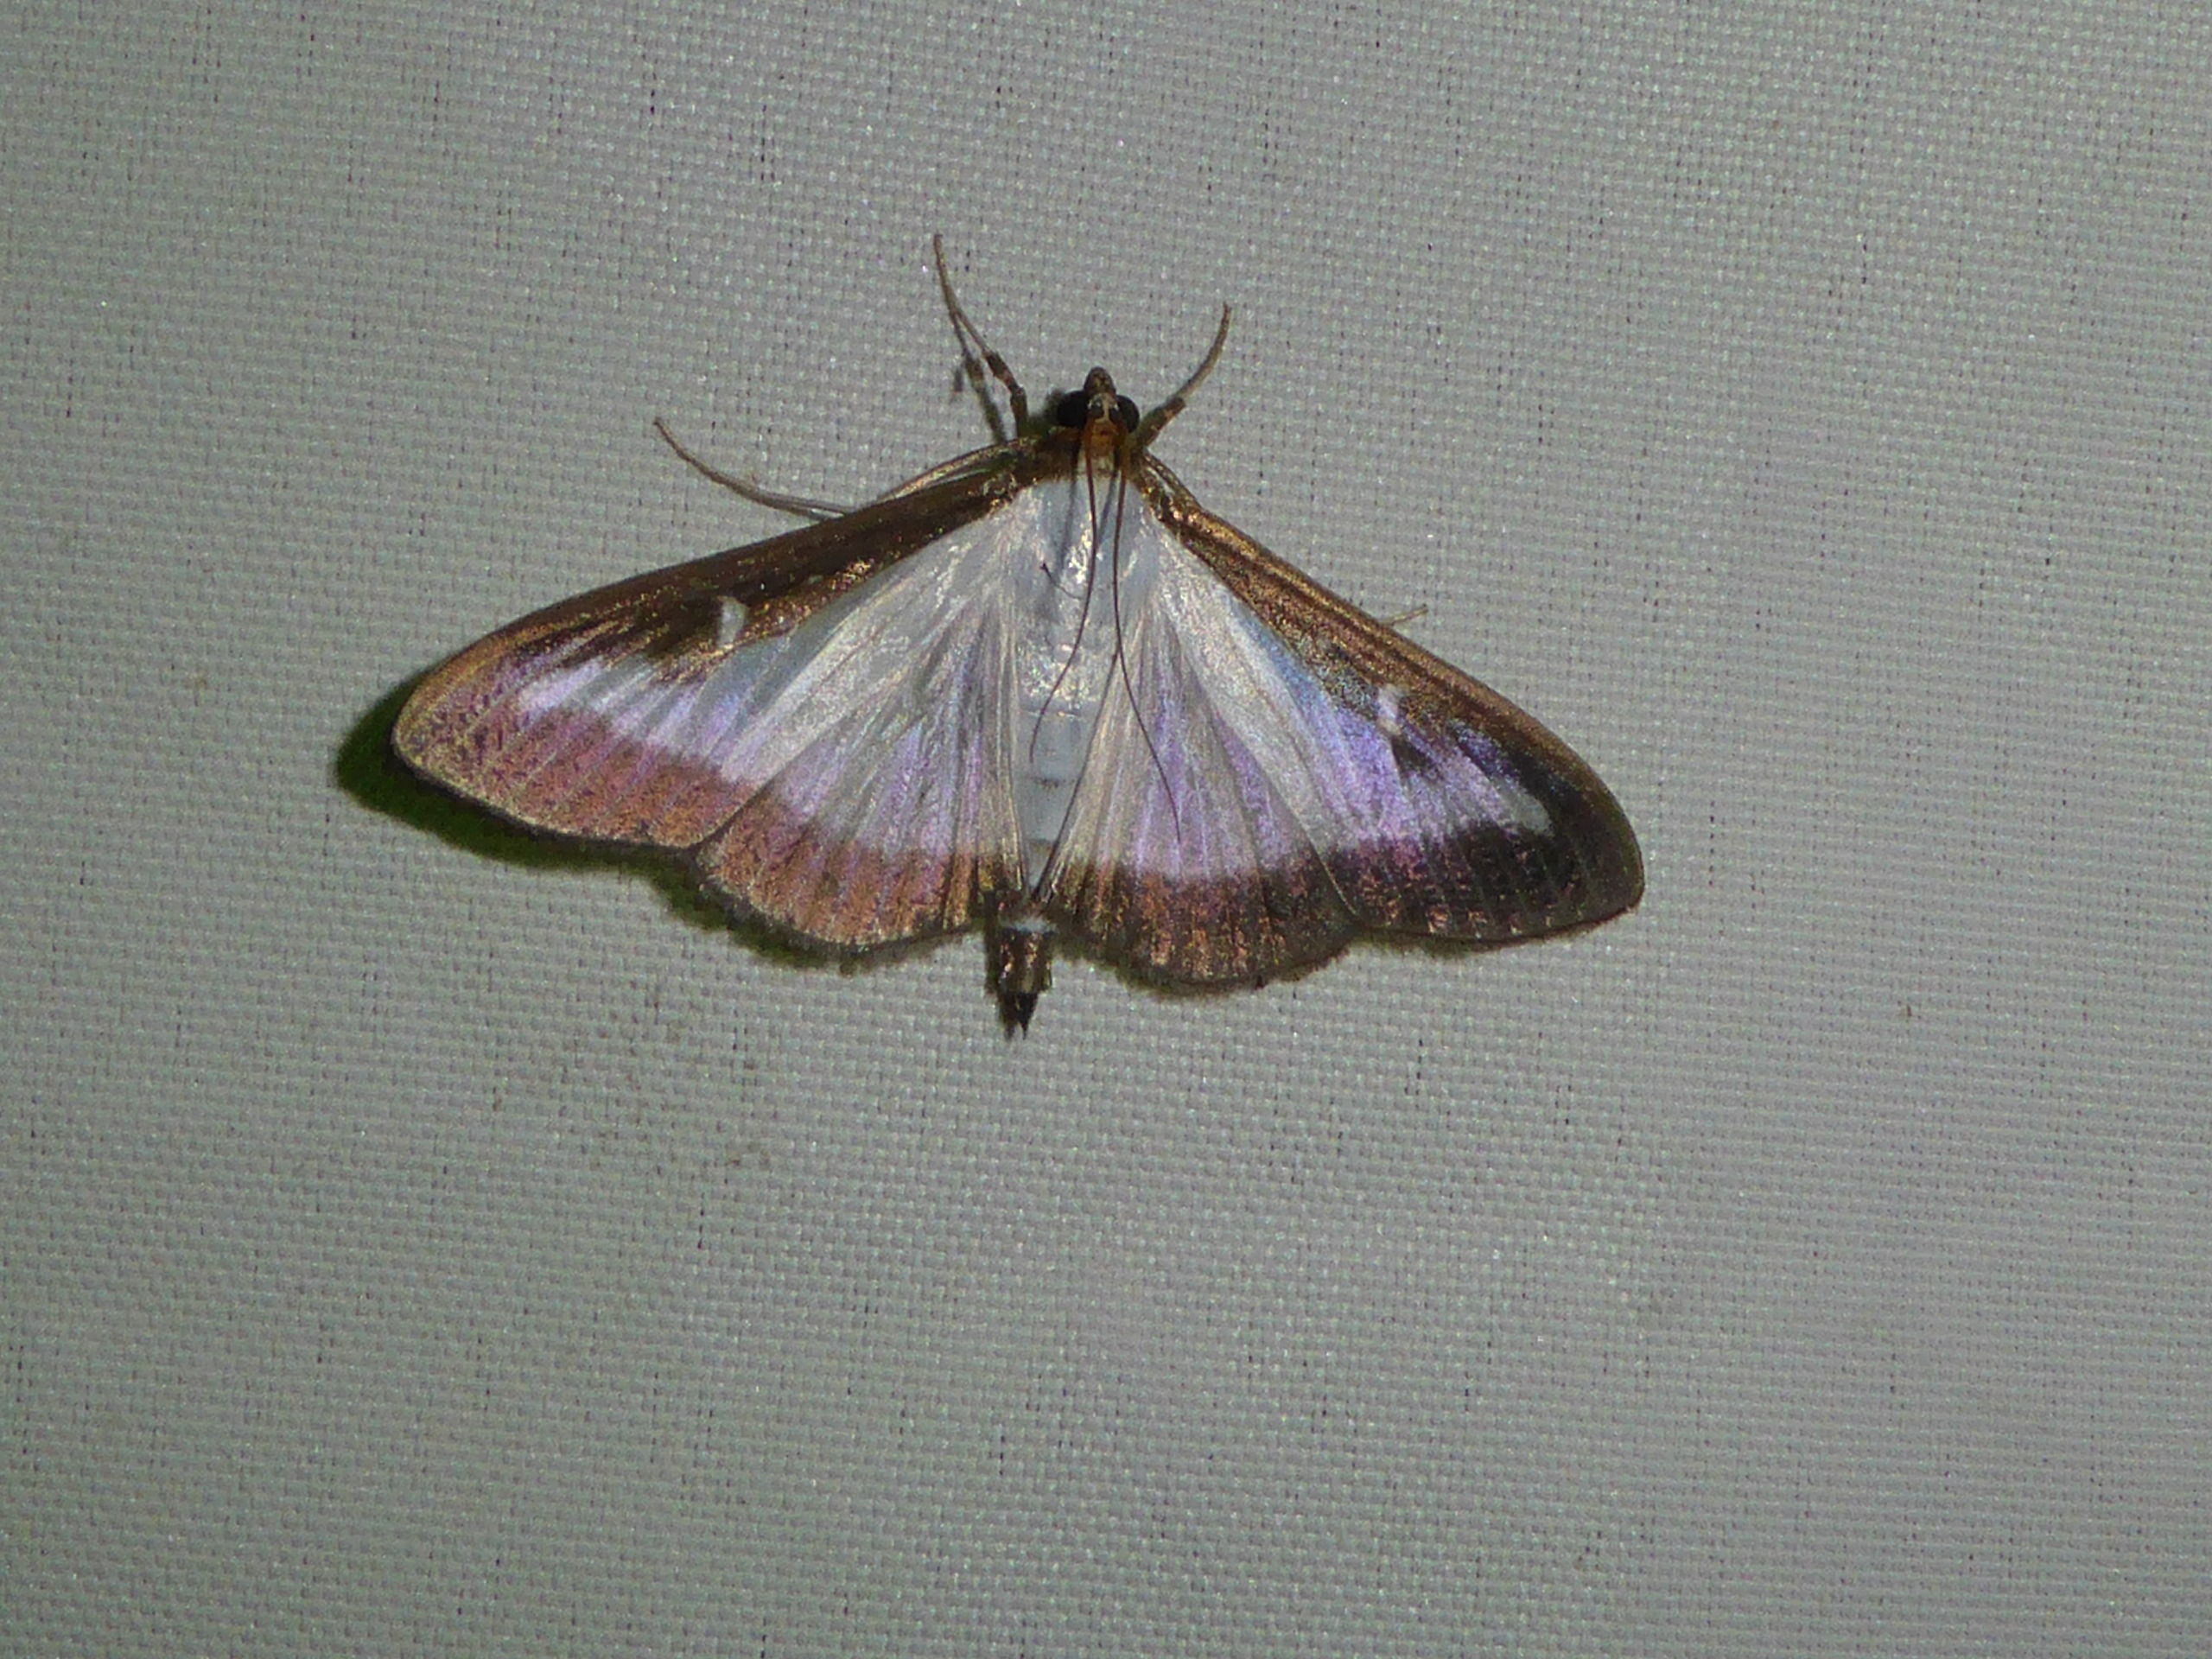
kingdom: Animalia
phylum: Arthropoda
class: Insecta
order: Lepidoptera
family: Crambidae
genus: Cydalima
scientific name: Cydalima perspectalis
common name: Buksbomhalvmøl
